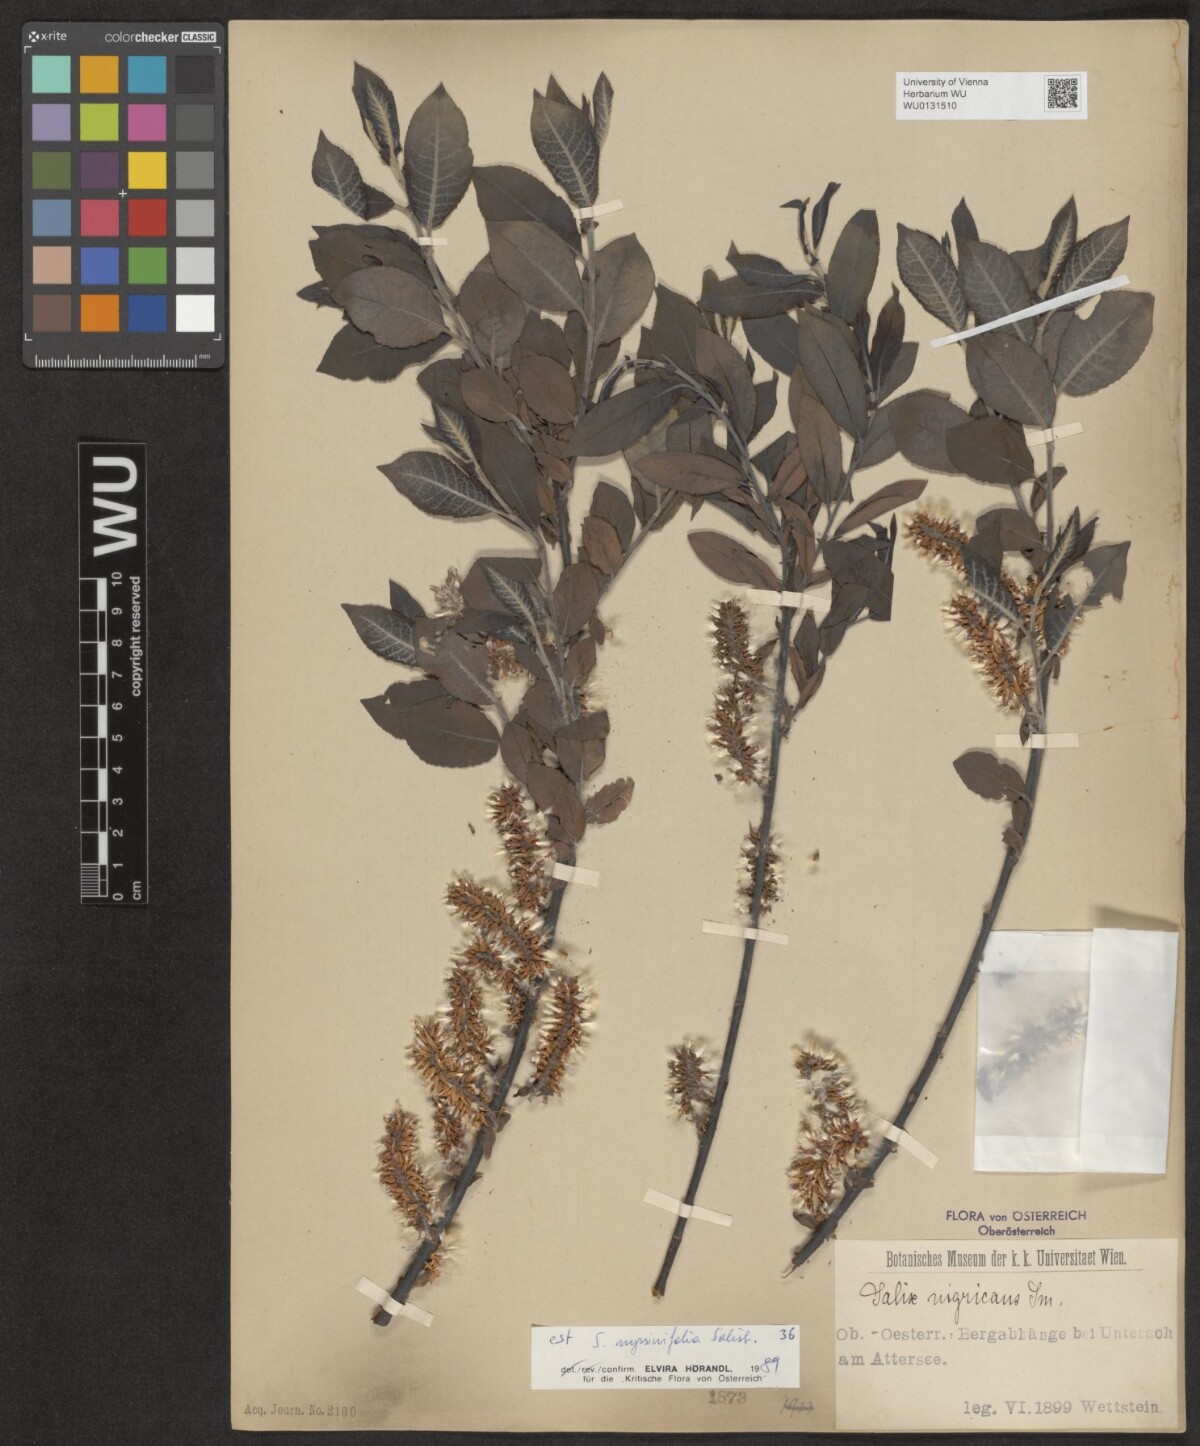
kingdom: Plantae
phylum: Tracheophyta
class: Magnoliopsida
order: Malpighiales
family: Salicaceae
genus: Salix
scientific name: Salix myrsinifolia
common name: Dark-leaved willow
